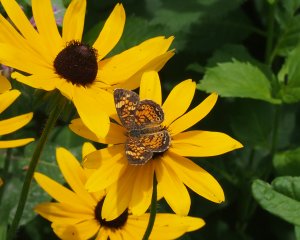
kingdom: Animalia
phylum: Arthropoda
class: Insecta
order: Lepidoptera
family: Nymphalidae
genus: Phyciodes
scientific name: Phyciodes tharos
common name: Northern Crescent
